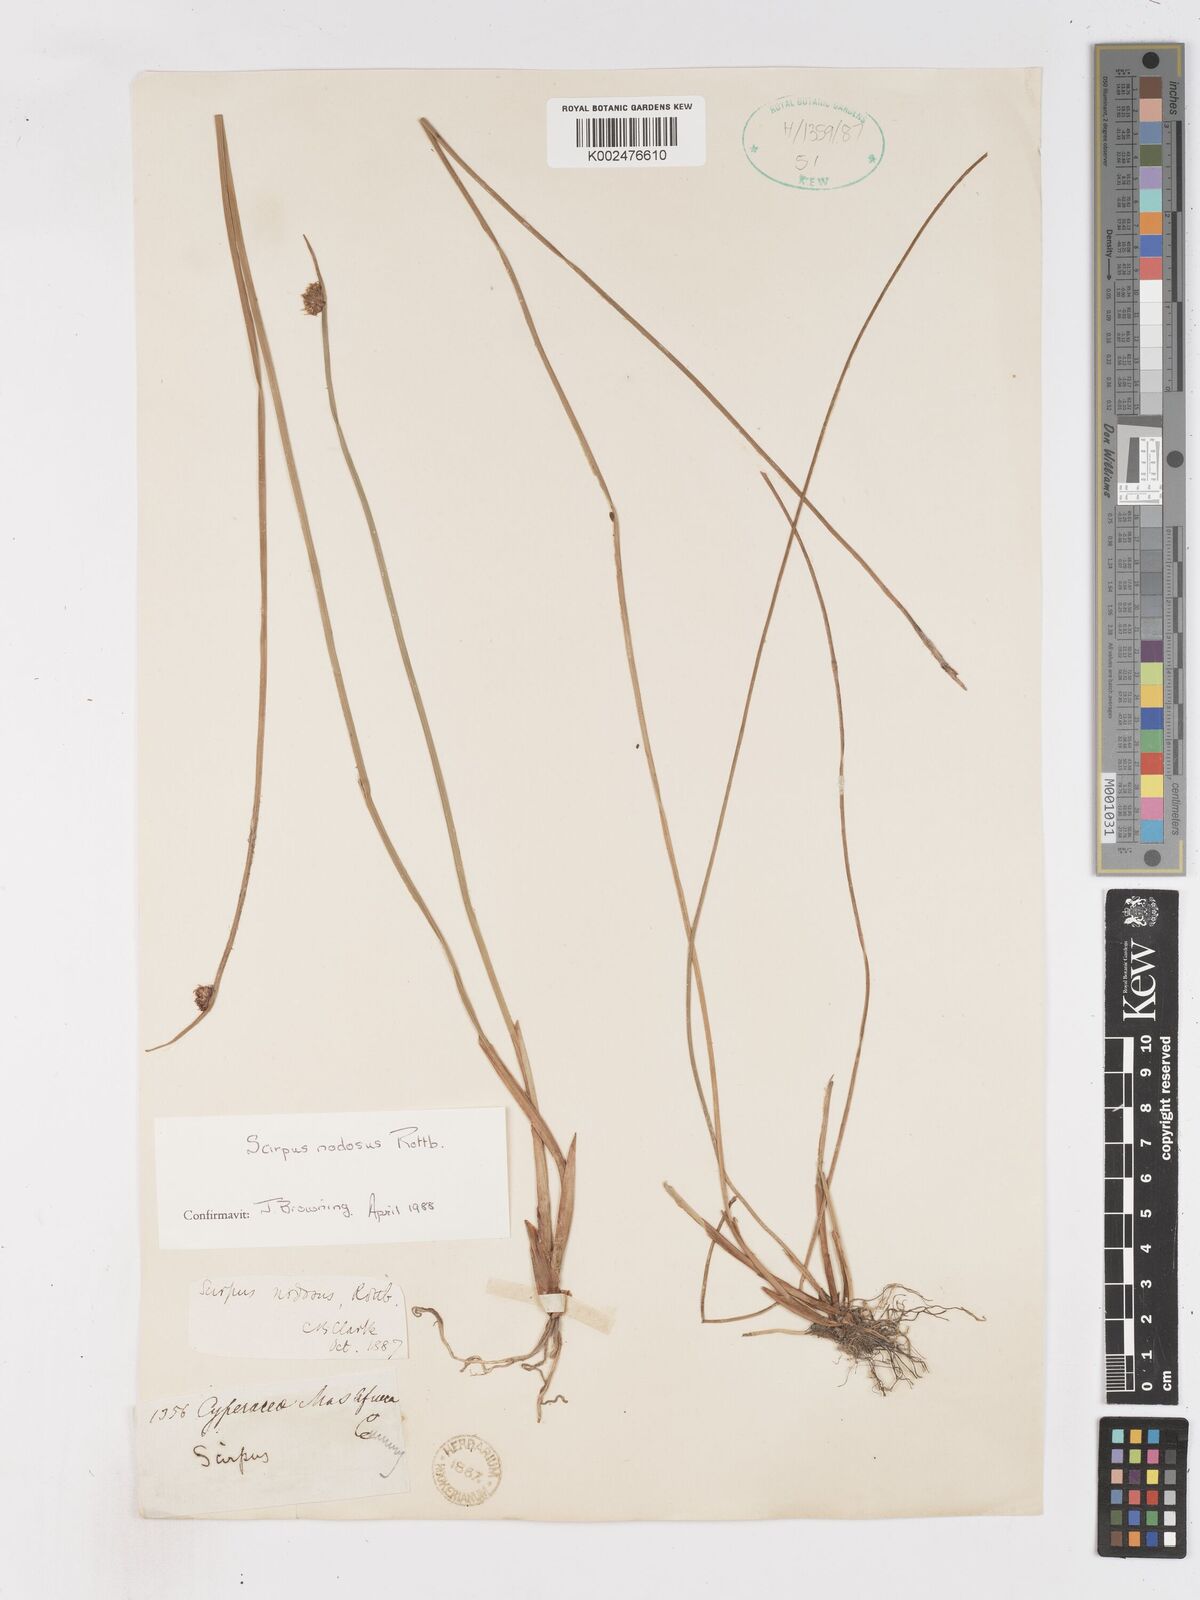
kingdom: Plantae
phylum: Tracheophyta
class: Liliopsida
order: Poales
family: Cyperaceae
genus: Ficinia
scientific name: Ficinia nodosa
